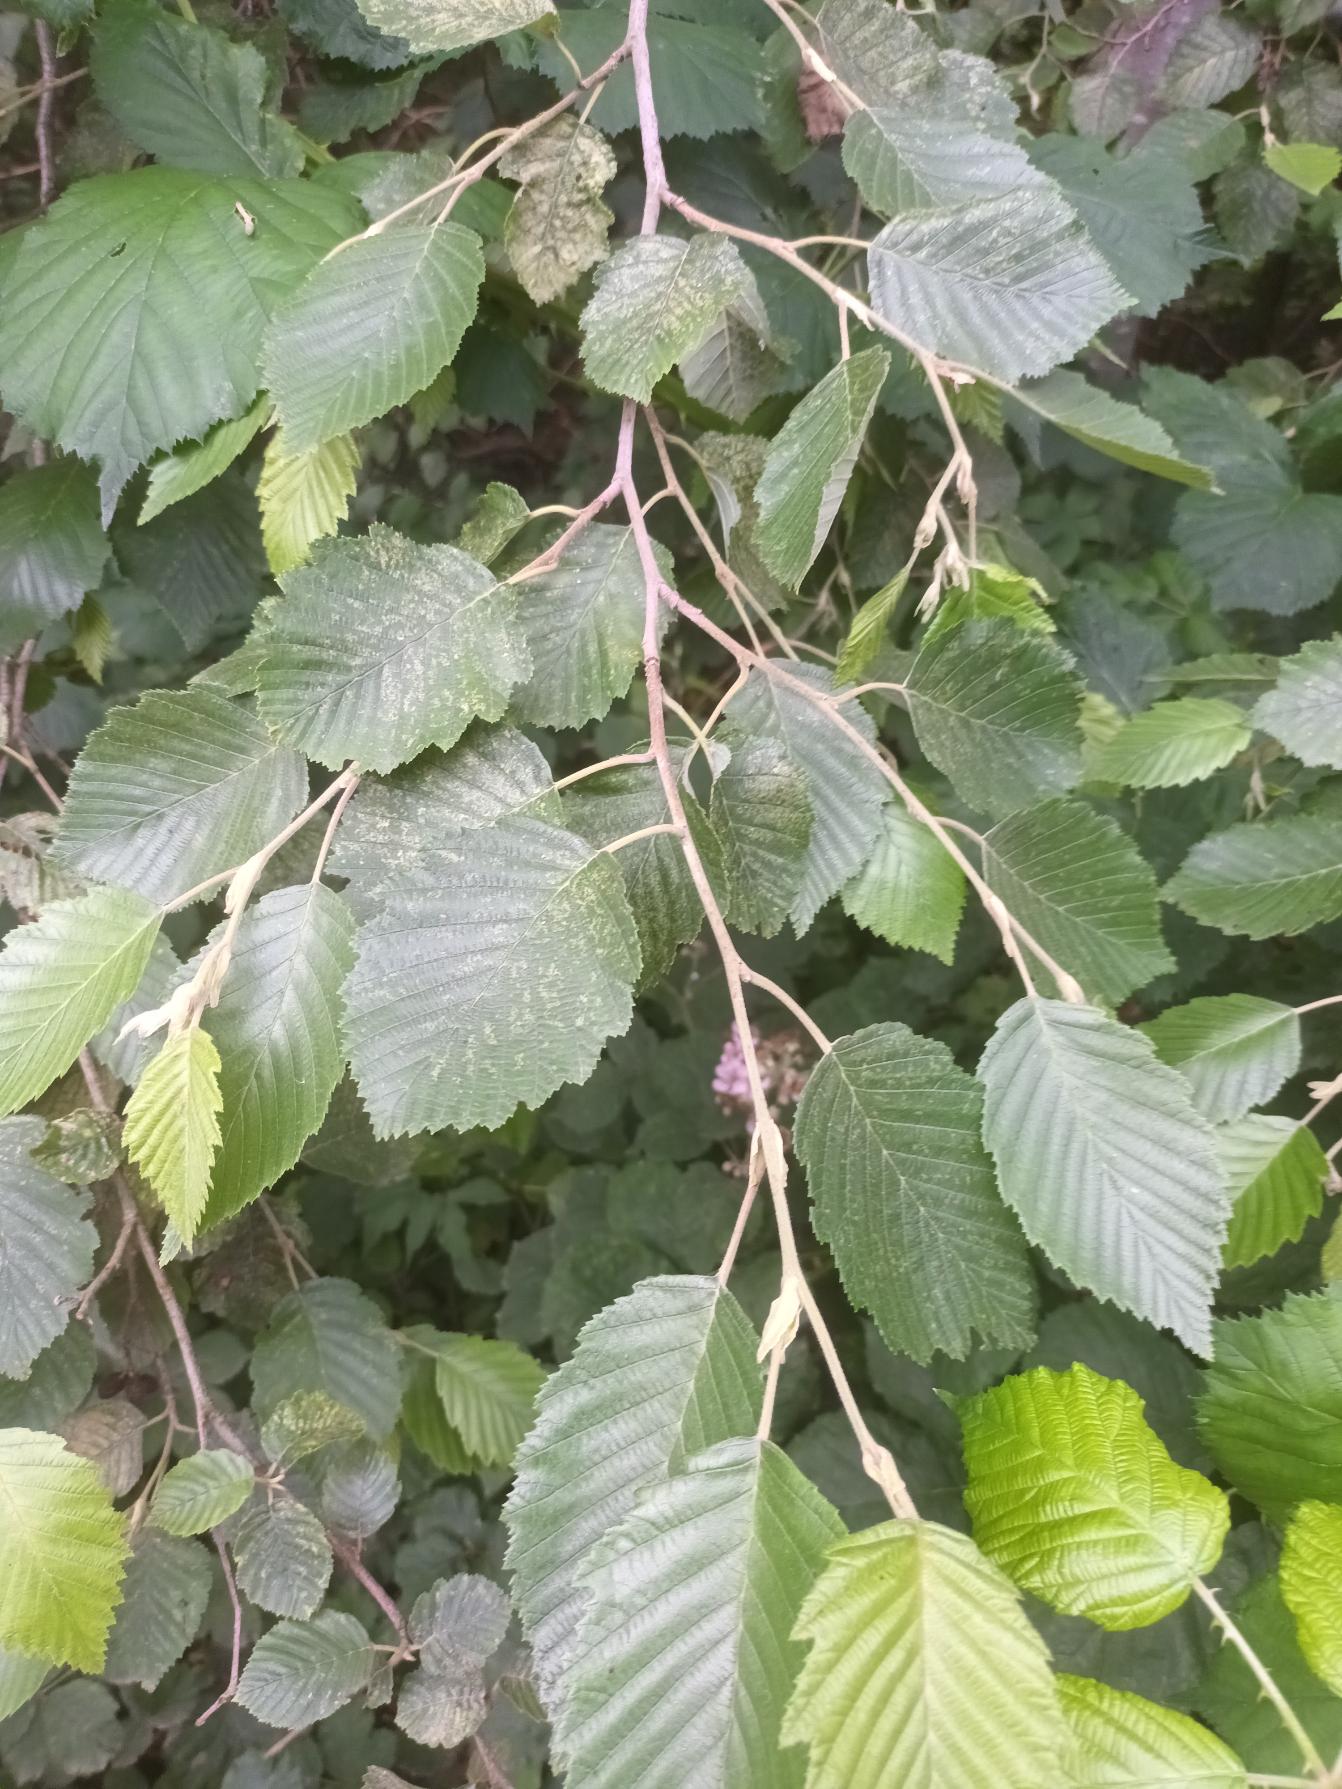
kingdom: Plantae
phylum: Tracheophyta
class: Magnoliopsida
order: Fagales
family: Betulaceae
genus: Alnus
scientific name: Alnus incana
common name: Grå-el/hvid-el
